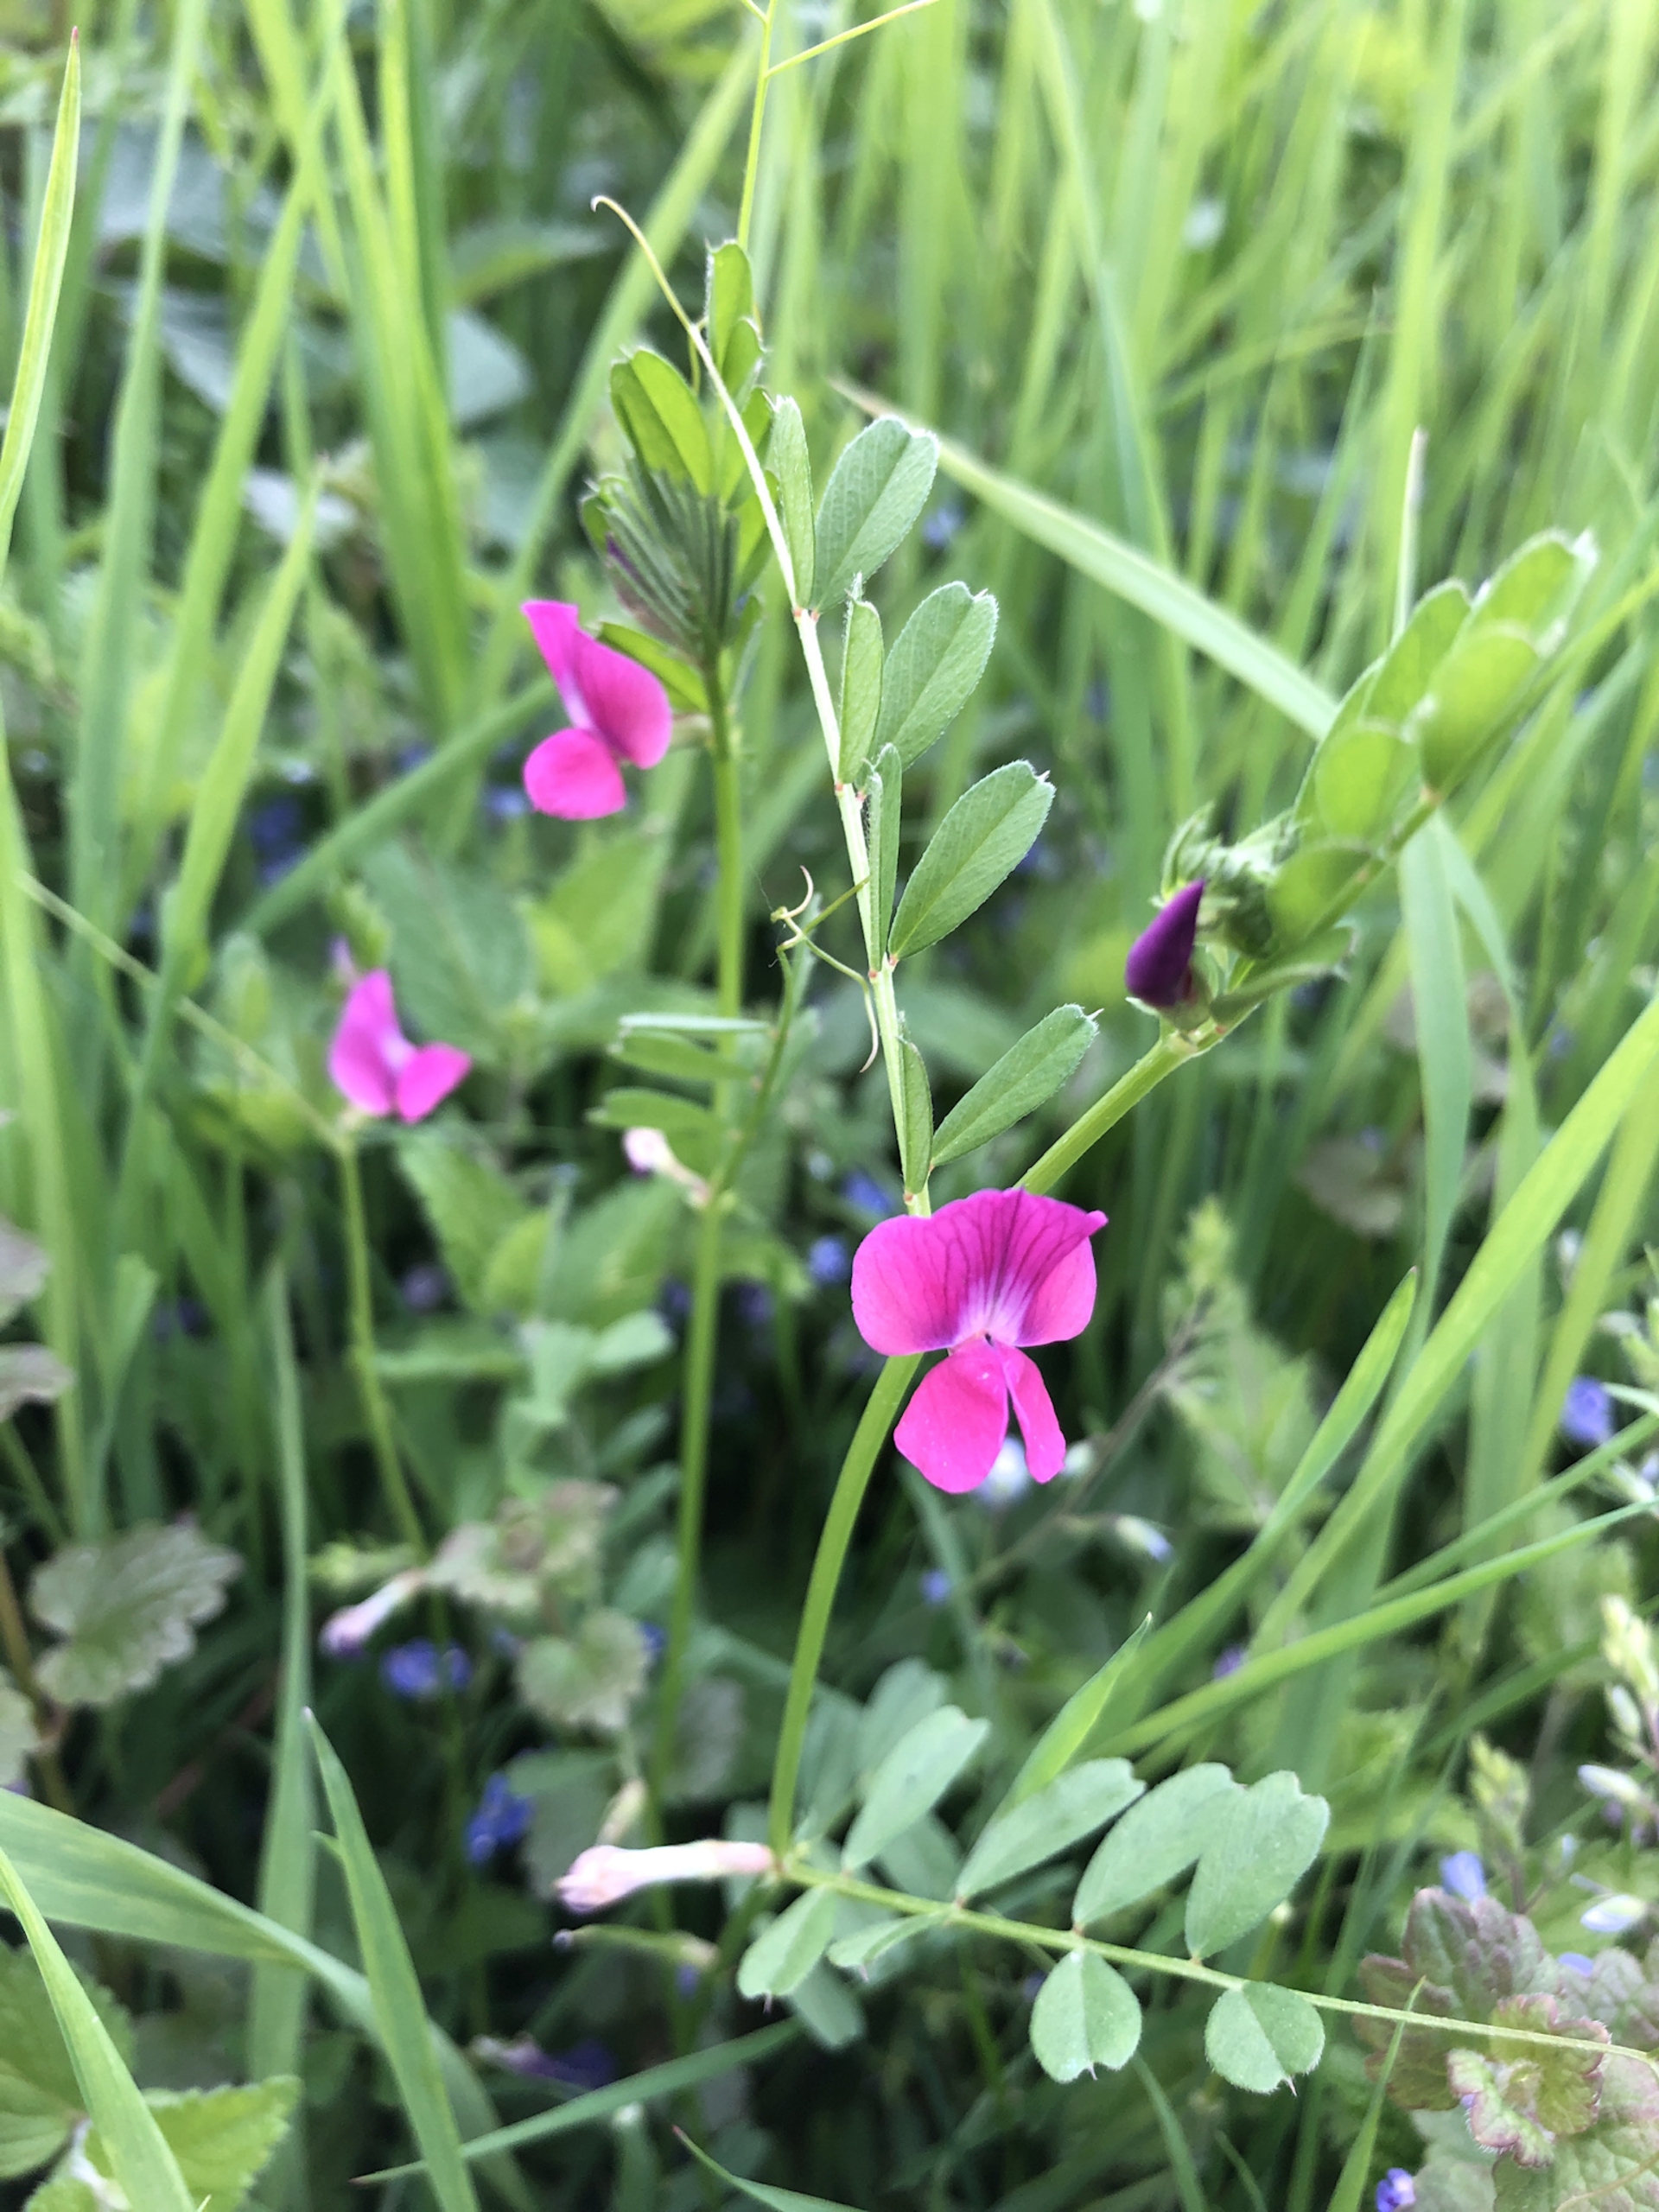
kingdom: Plantae
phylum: Tracheophyta
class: Magnoliopsida
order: Fabales
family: Fabaceae
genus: Vicia
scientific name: Vicia sativa
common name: Foder-vikke
